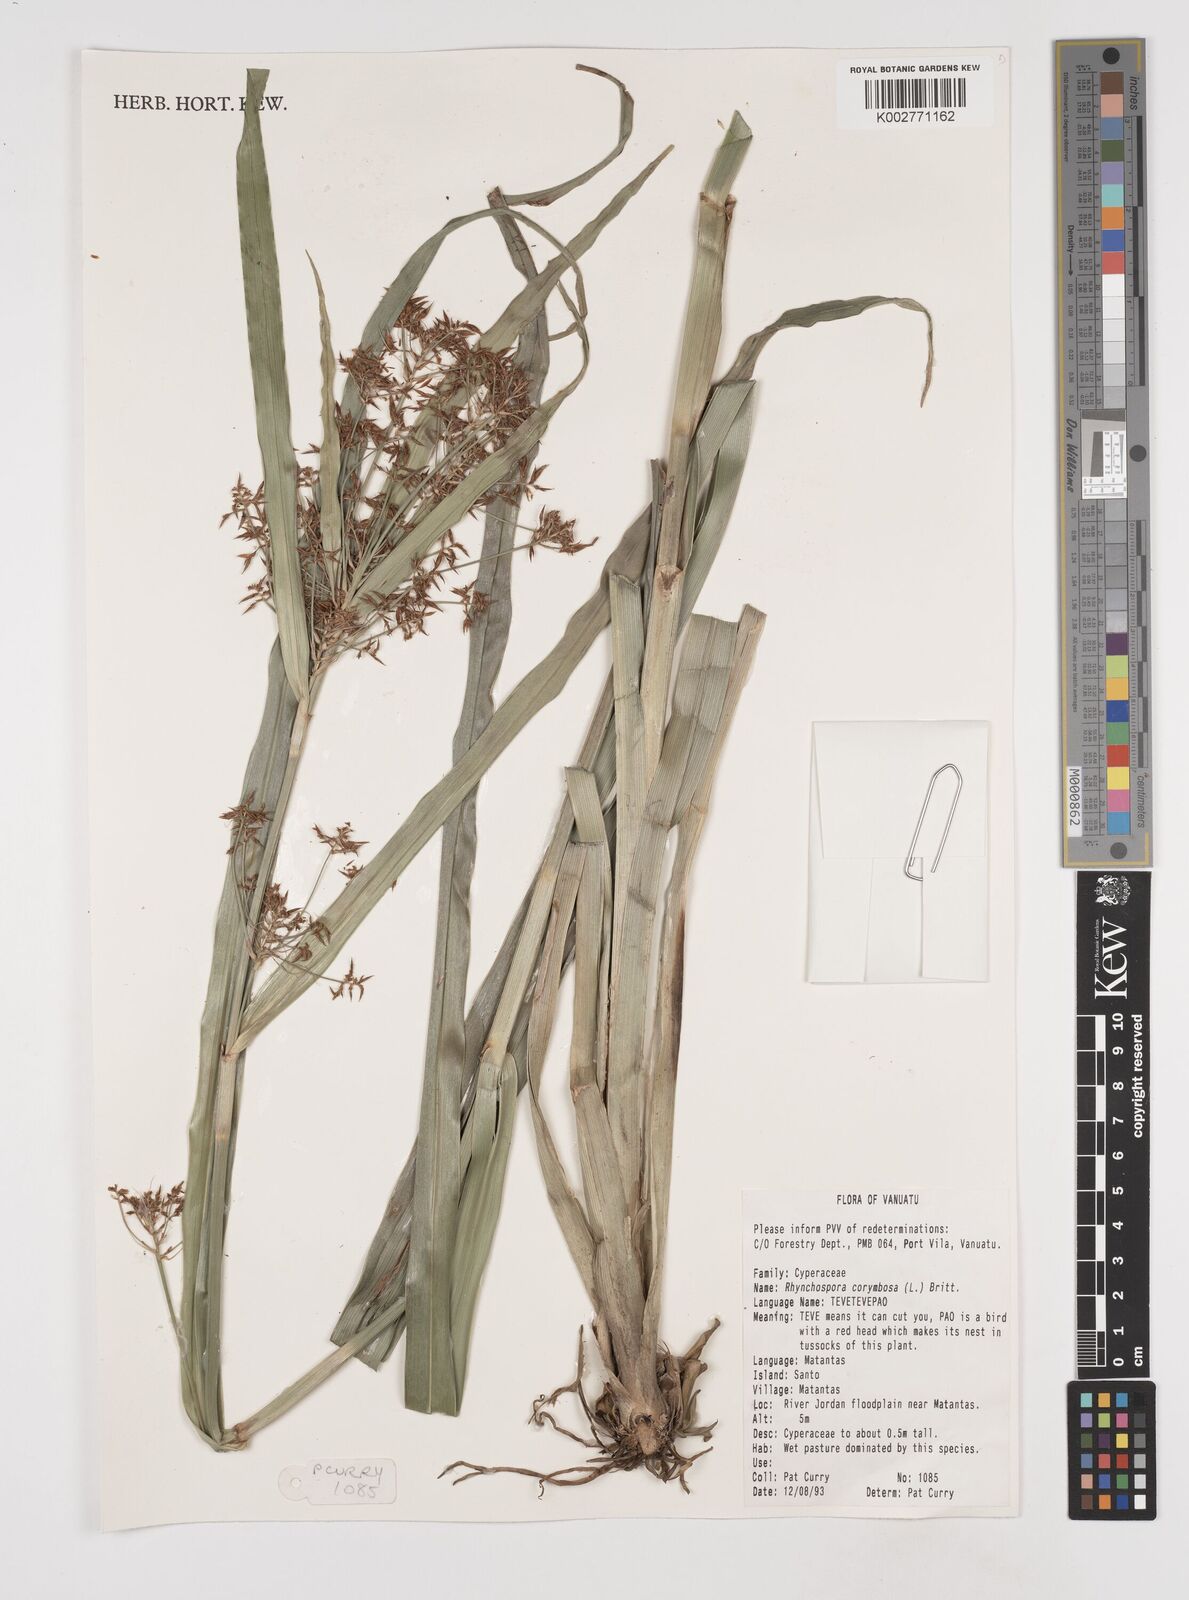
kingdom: Plantae
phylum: Tracheophyta
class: Liliopsida
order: Poales
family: Cyperaceae
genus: Rhynchospora
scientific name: Rhynchospora corymbosa
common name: Golden beak sedge
